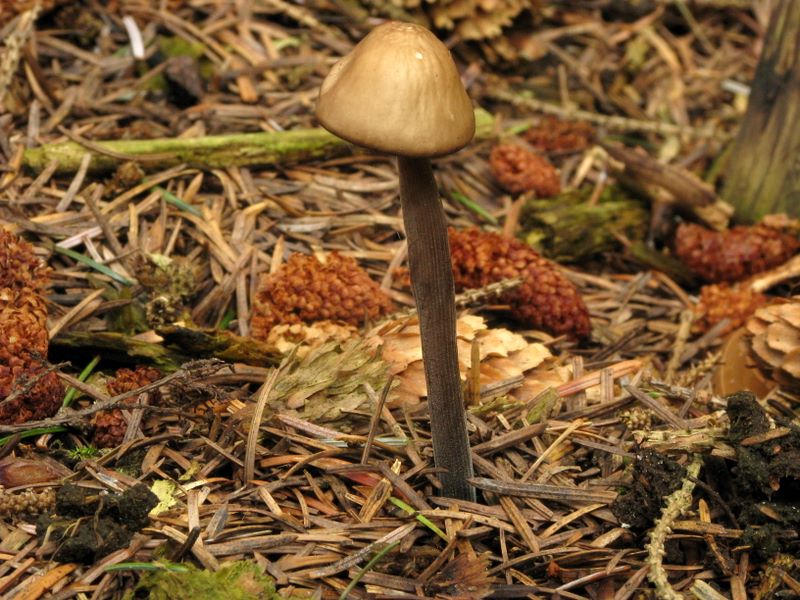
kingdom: Fungi
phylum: Basidiomycota
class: Agaricomycetes
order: Agaricales
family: Omphalotaceae
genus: Mycetinis
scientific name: Mycetinis alliaceus
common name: stor løghat
